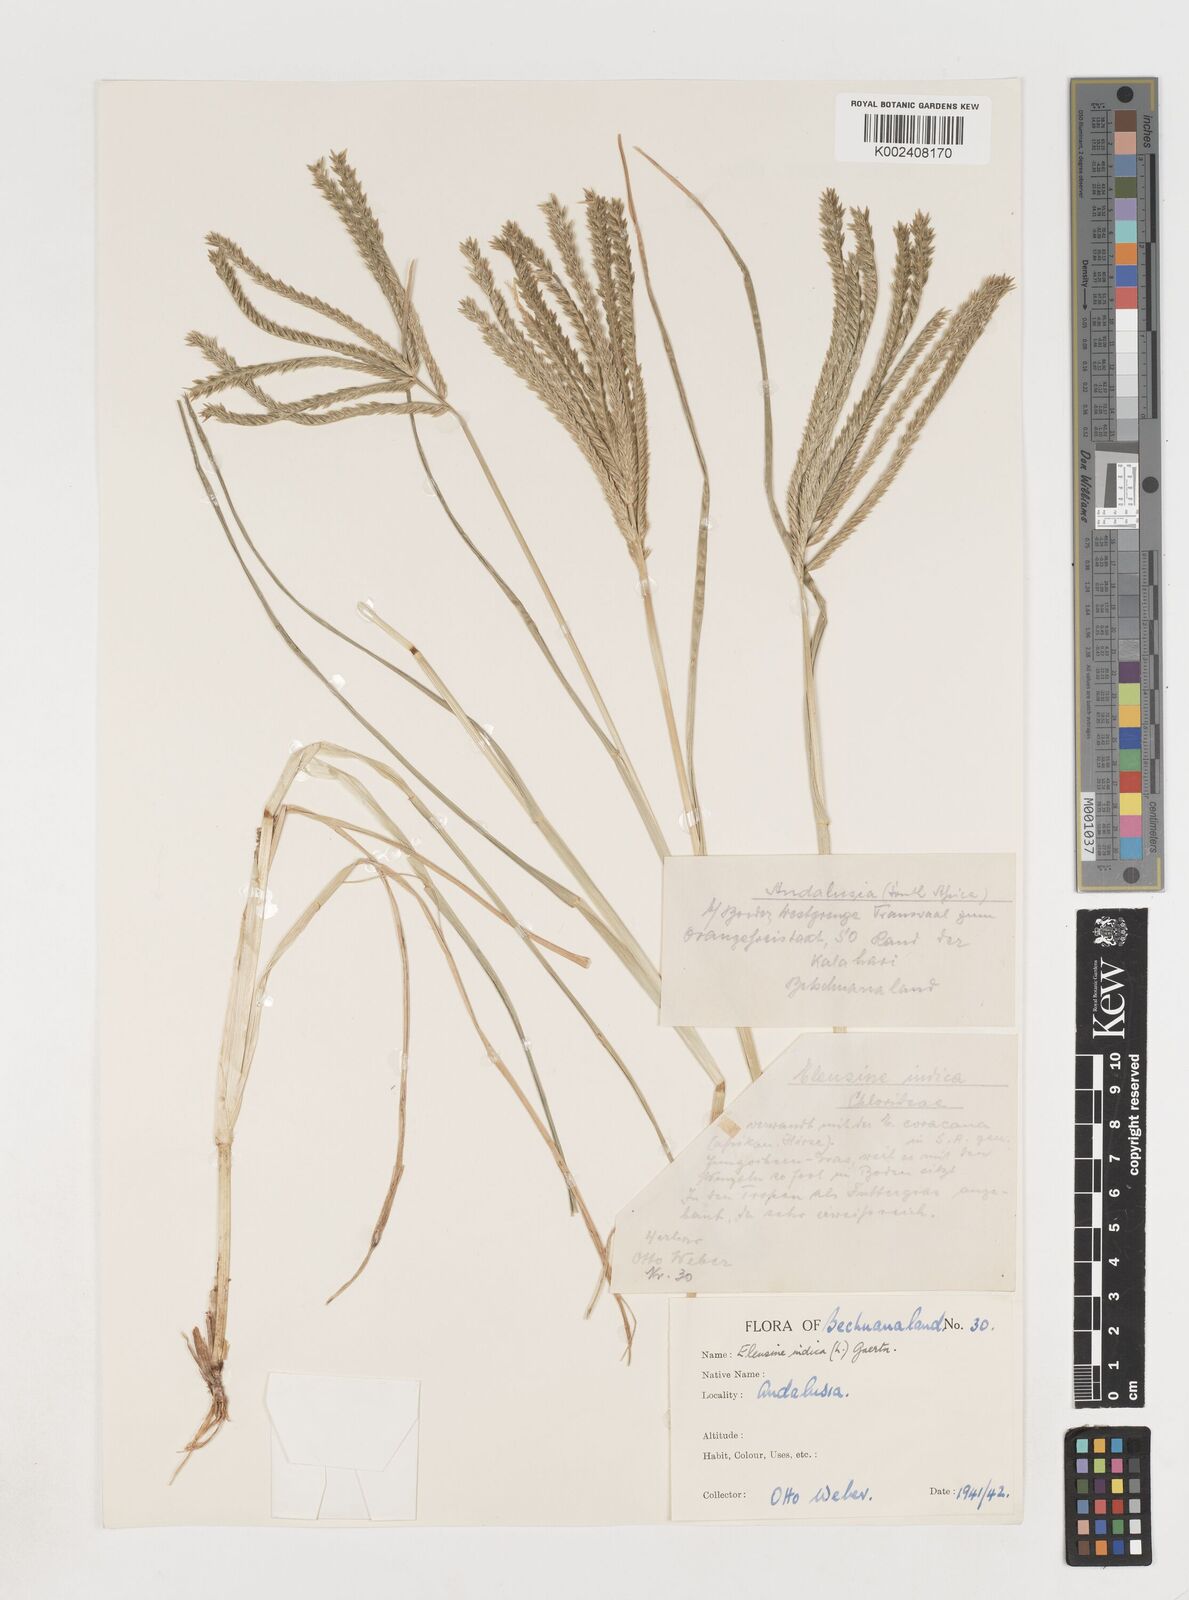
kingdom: Plantae
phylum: Tracheophyta
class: Liliopsida
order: Poales
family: Poaceae
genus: Eleusine
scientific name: Eleusine africana
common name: Wild african finger millet
